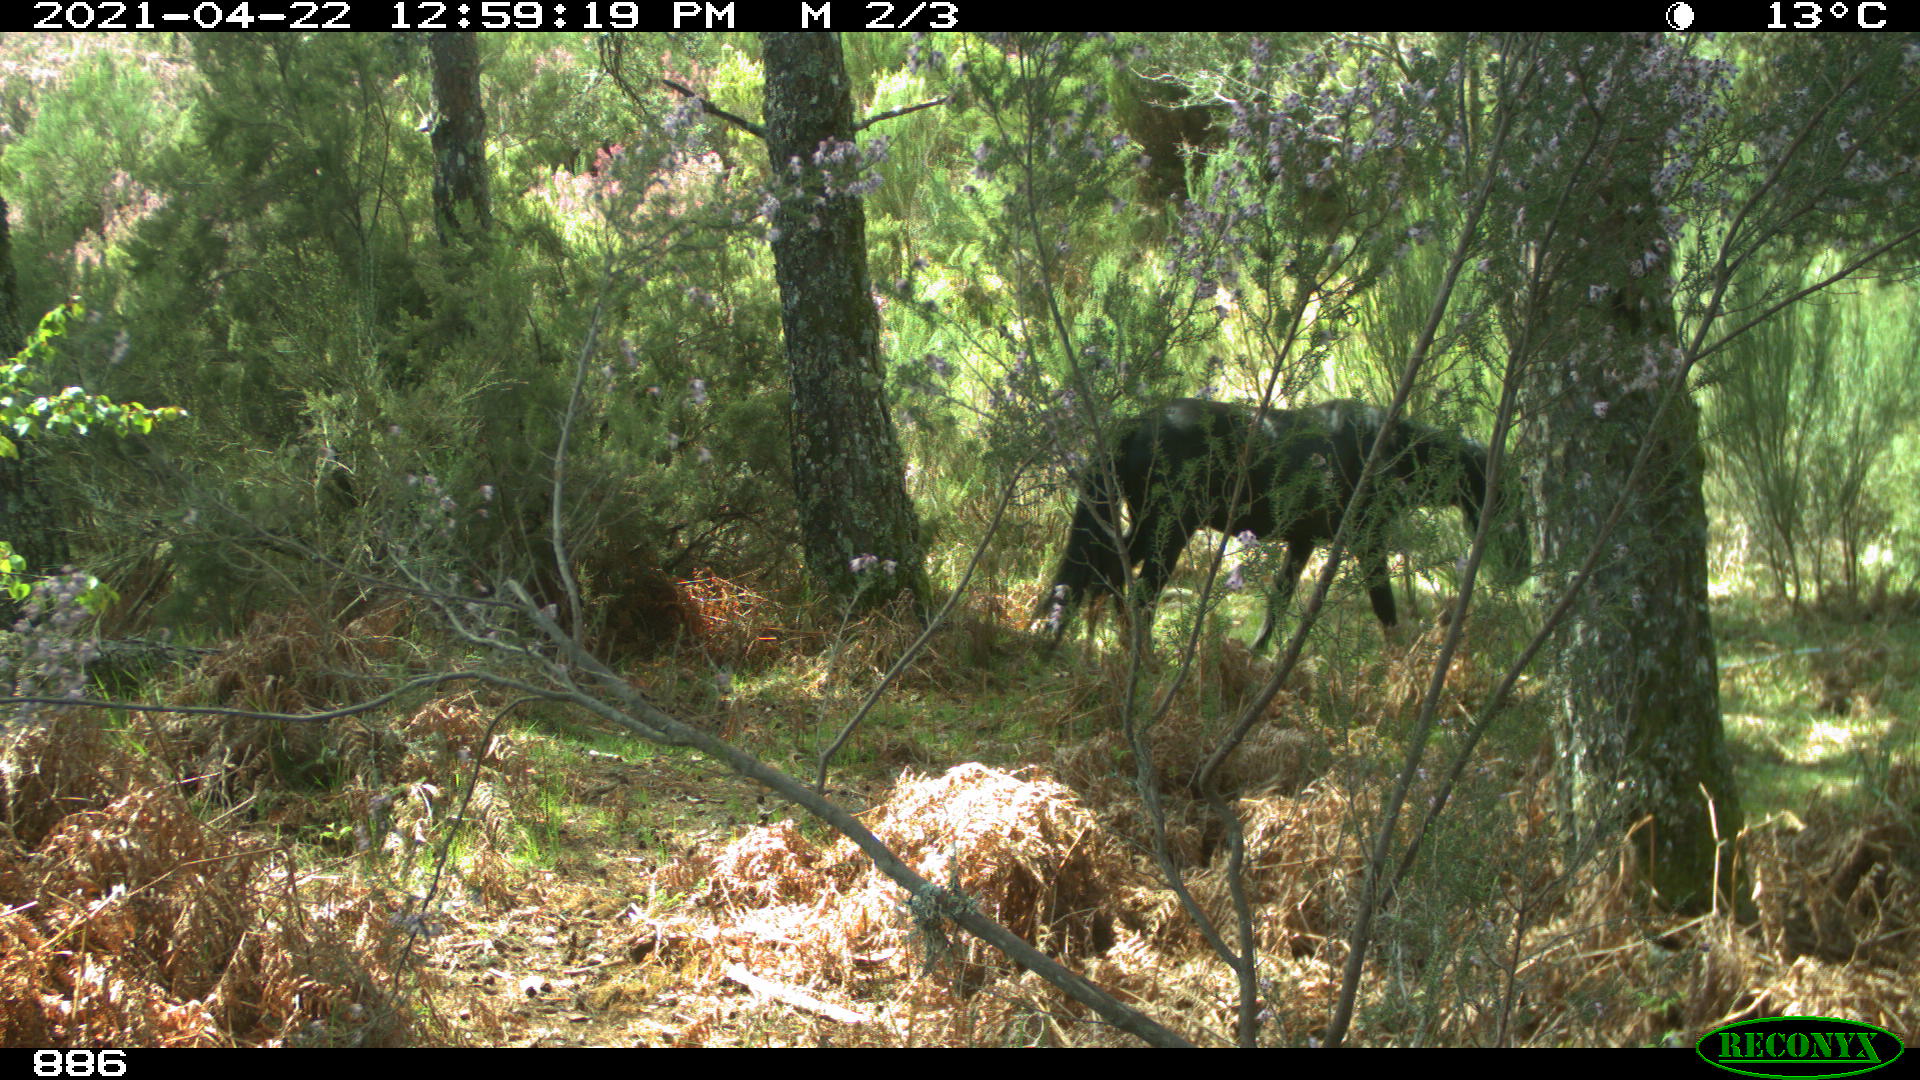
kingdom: Animalia
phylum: Chordata
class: Mammalia
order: Perissodactyla
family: Equidae
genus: Equus
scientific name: Equus caballus
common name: Horse
